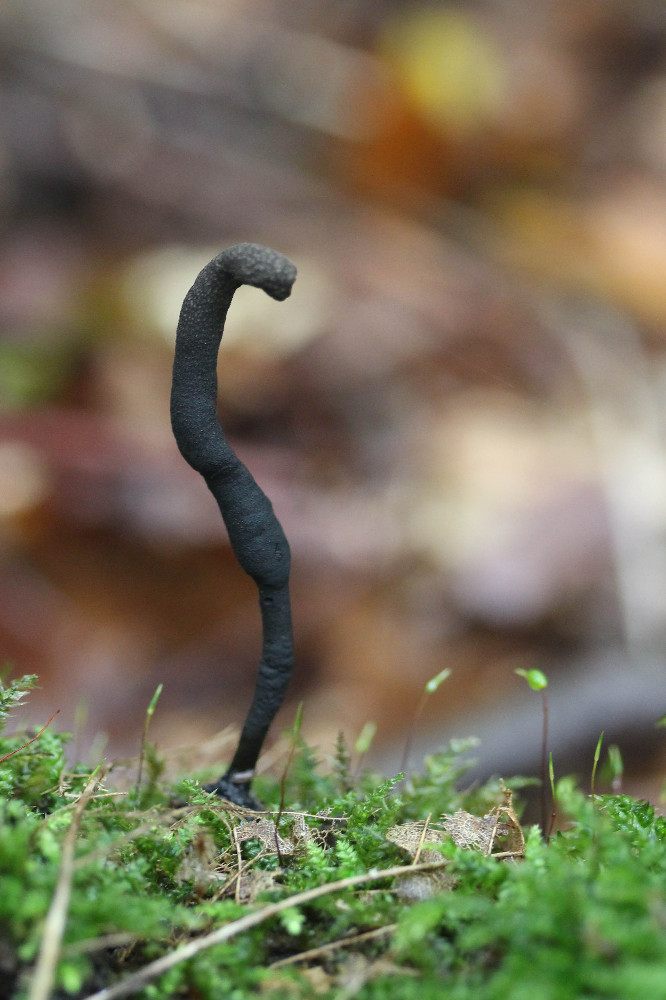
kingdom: Fungi
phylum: Ascomycota
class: Sordariomycetes
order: Xylariales
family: Xylariaceae
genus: Xylaria
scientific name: Xylaria longipes
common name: slank stødsvamp
